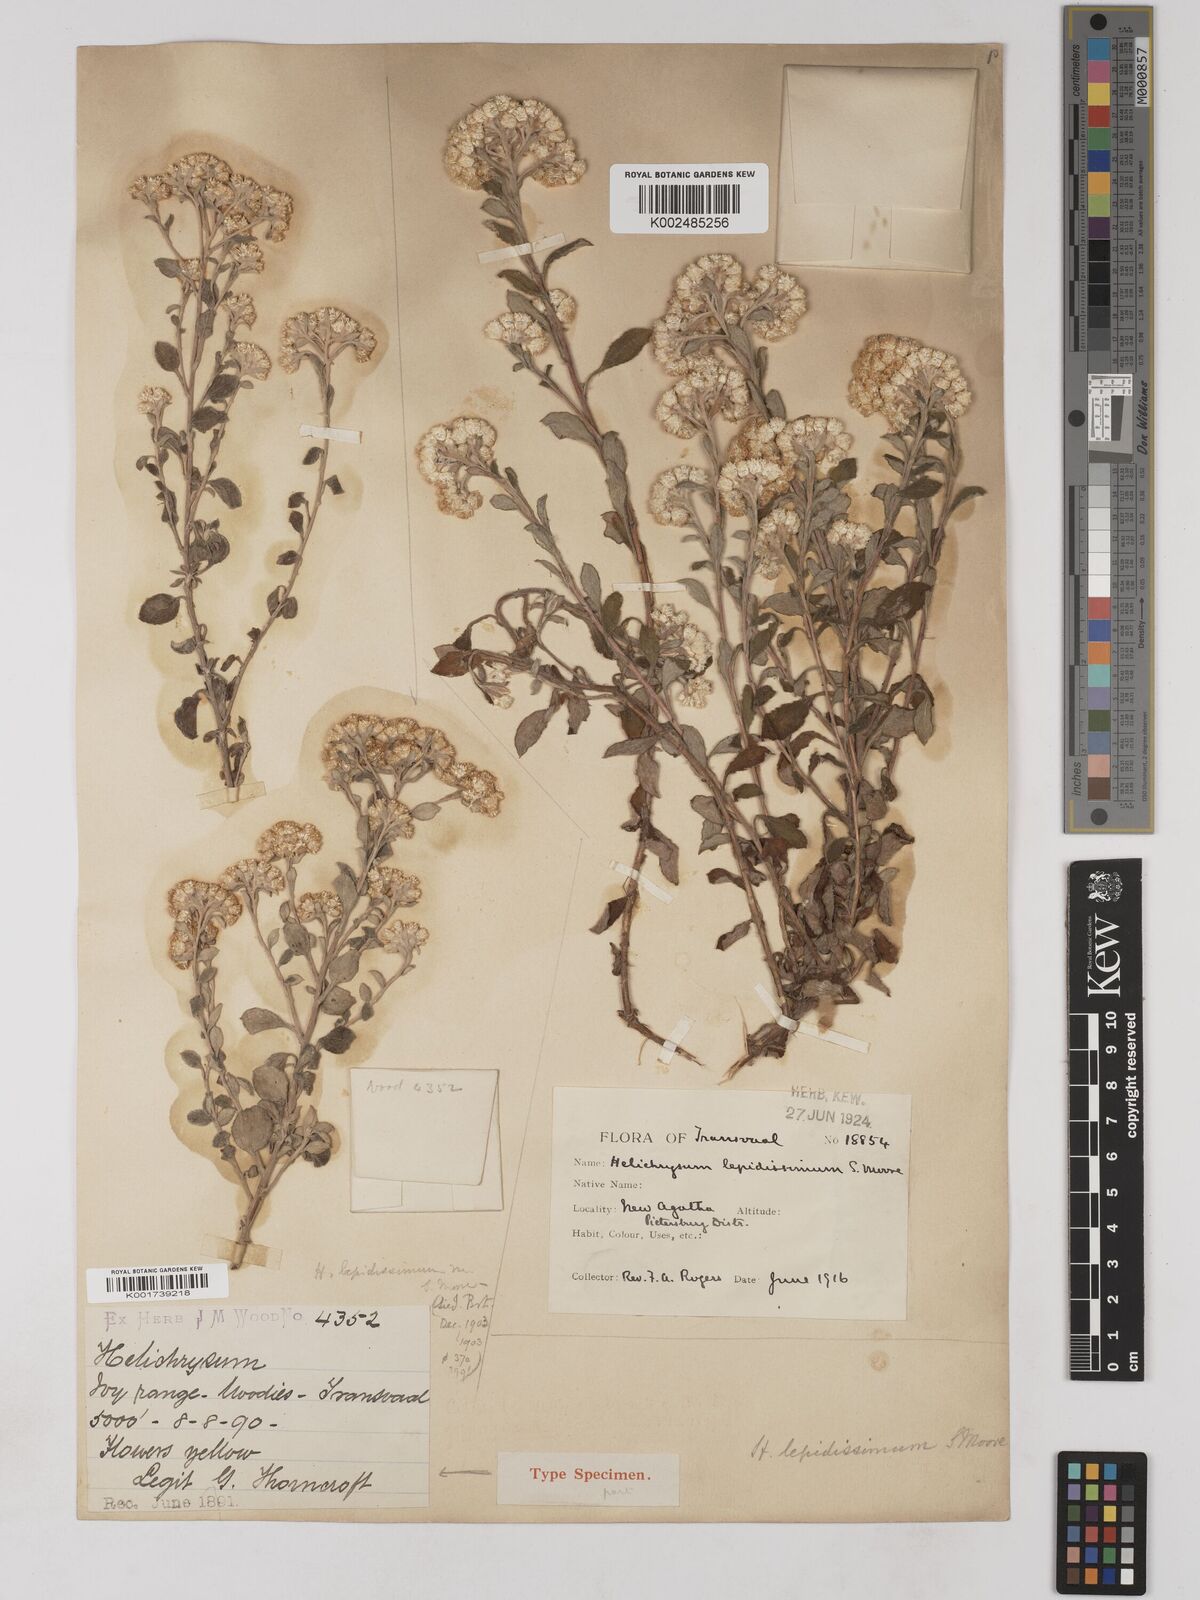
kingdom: Plantae
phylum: Tracheophyta
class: Magnoliopsida
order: Asterales
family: Asteraceae
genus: Helichrysum
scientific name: Helichrysum lepidissimum
